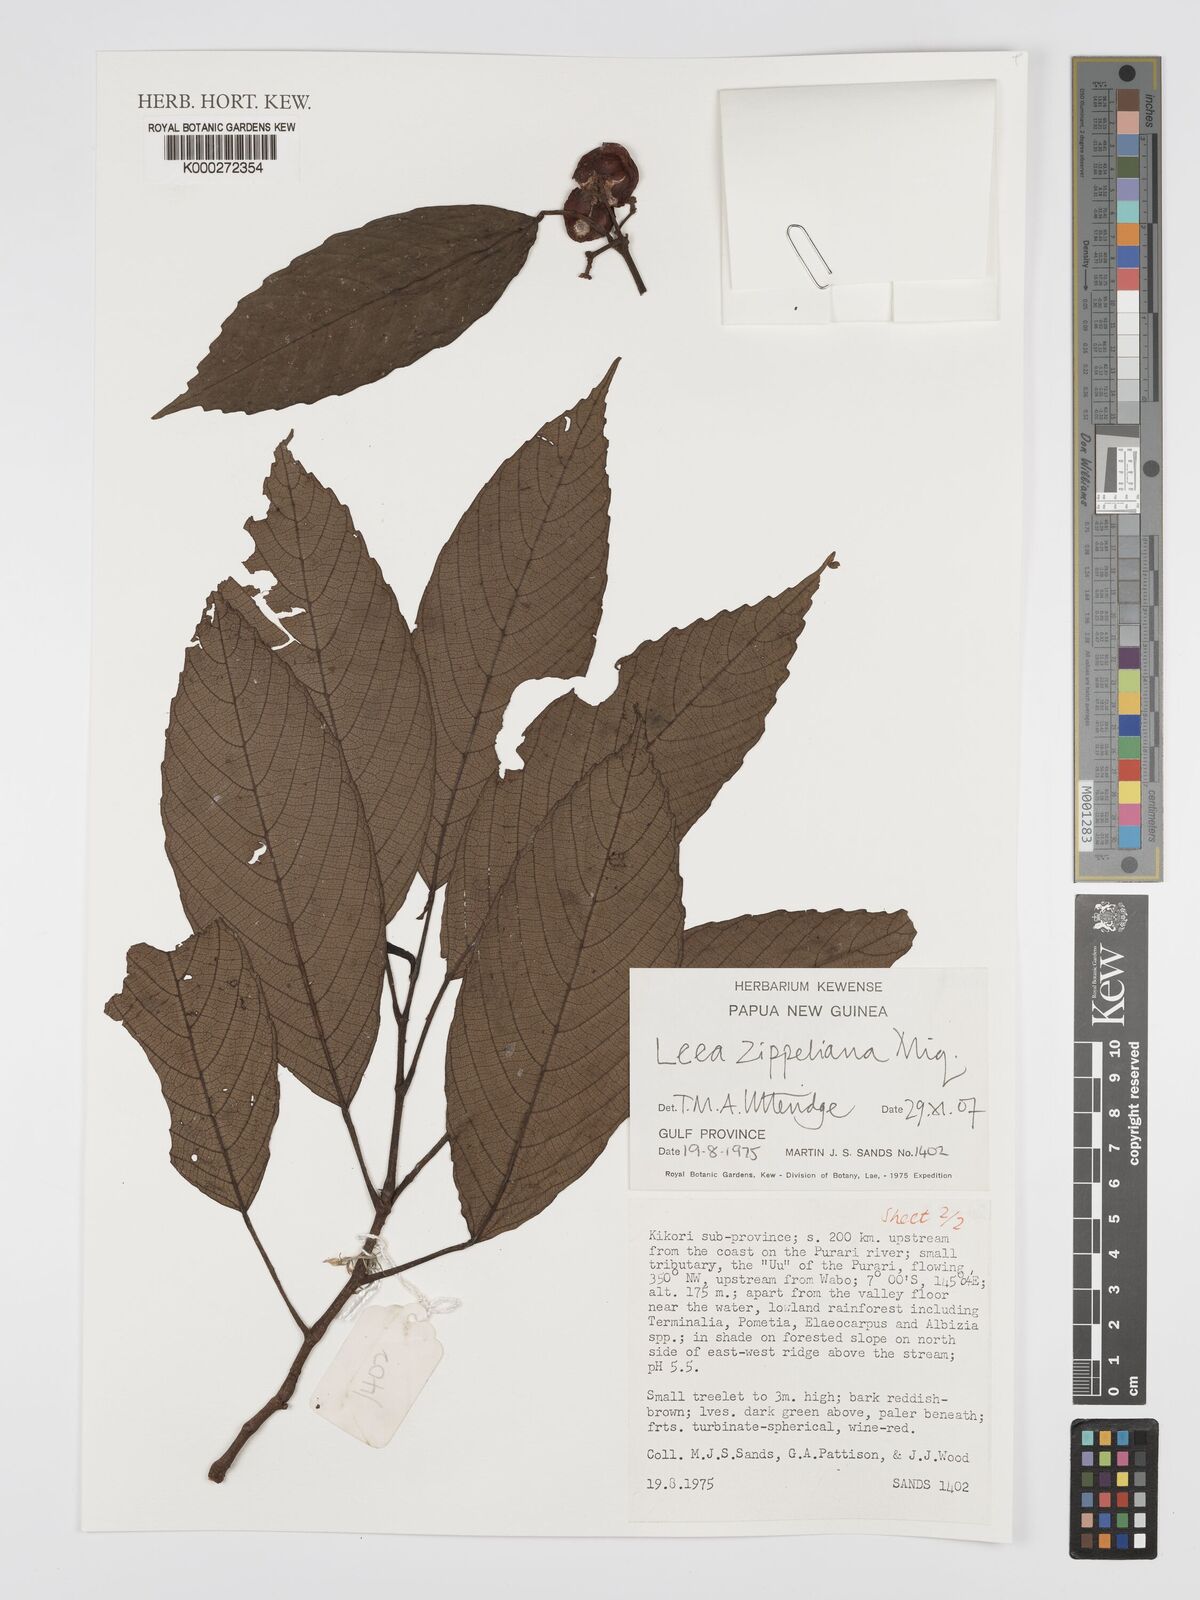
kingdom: Plantae
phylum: Tracheophyta
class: Magnoliopsida
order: Vitales
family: Vitaceae
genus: Leea
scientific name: Leea zippeliana
